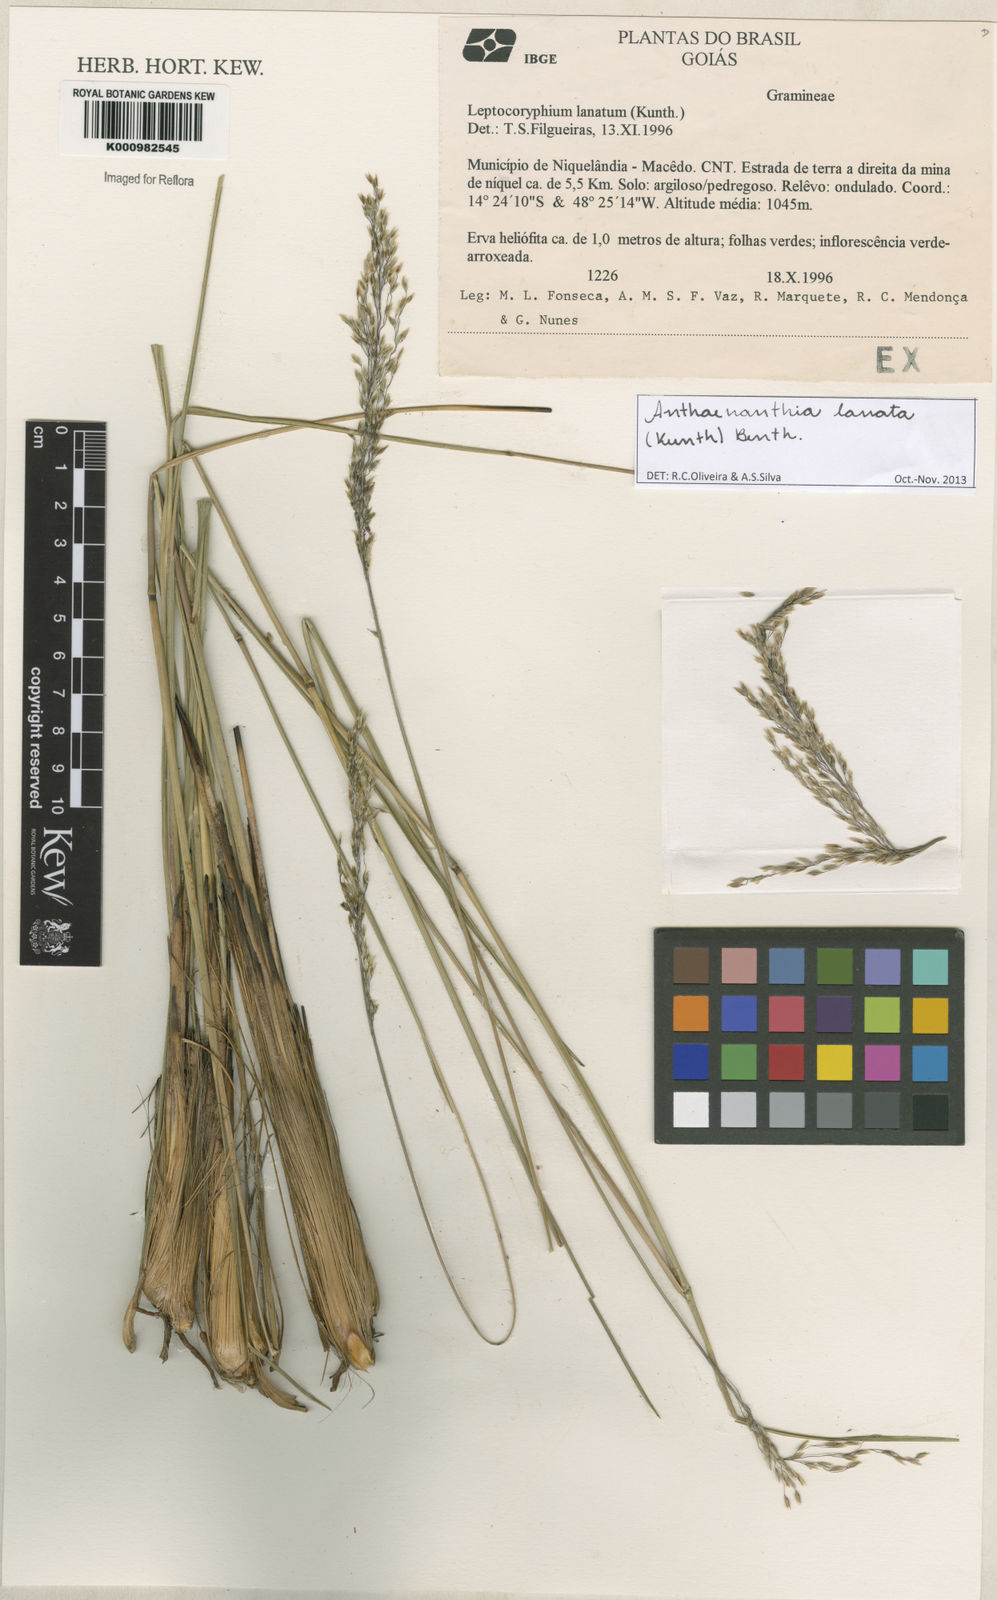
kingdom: Plantae
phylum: Tracheophyta
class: Liliopsida
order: Poales
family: Poaceae
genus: Anthenantia
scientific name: Anthenantia lanata
